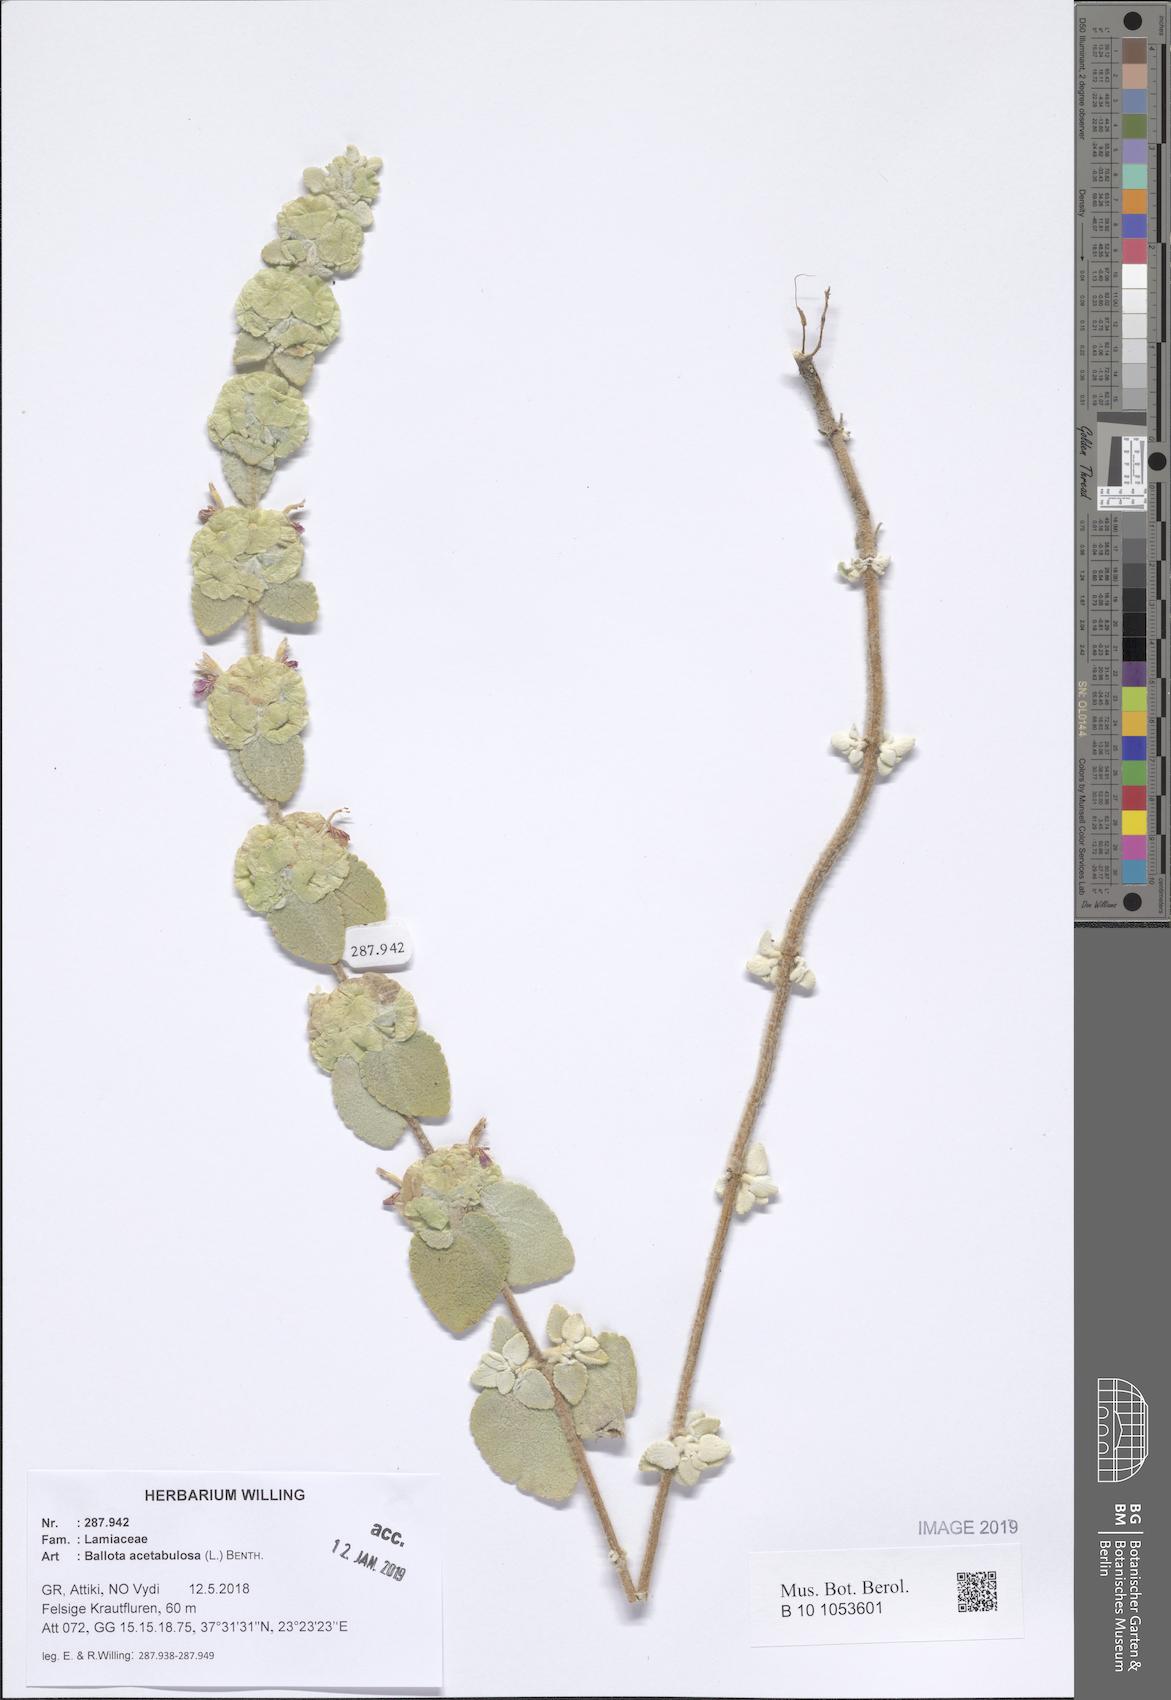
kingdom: Plantae
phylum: Tracheophyta
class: Magnoliopsida
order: Lamiales
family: Lamiaceae
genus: Pseudodictamnus
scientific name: Pseudodictamnus acetabulosus
